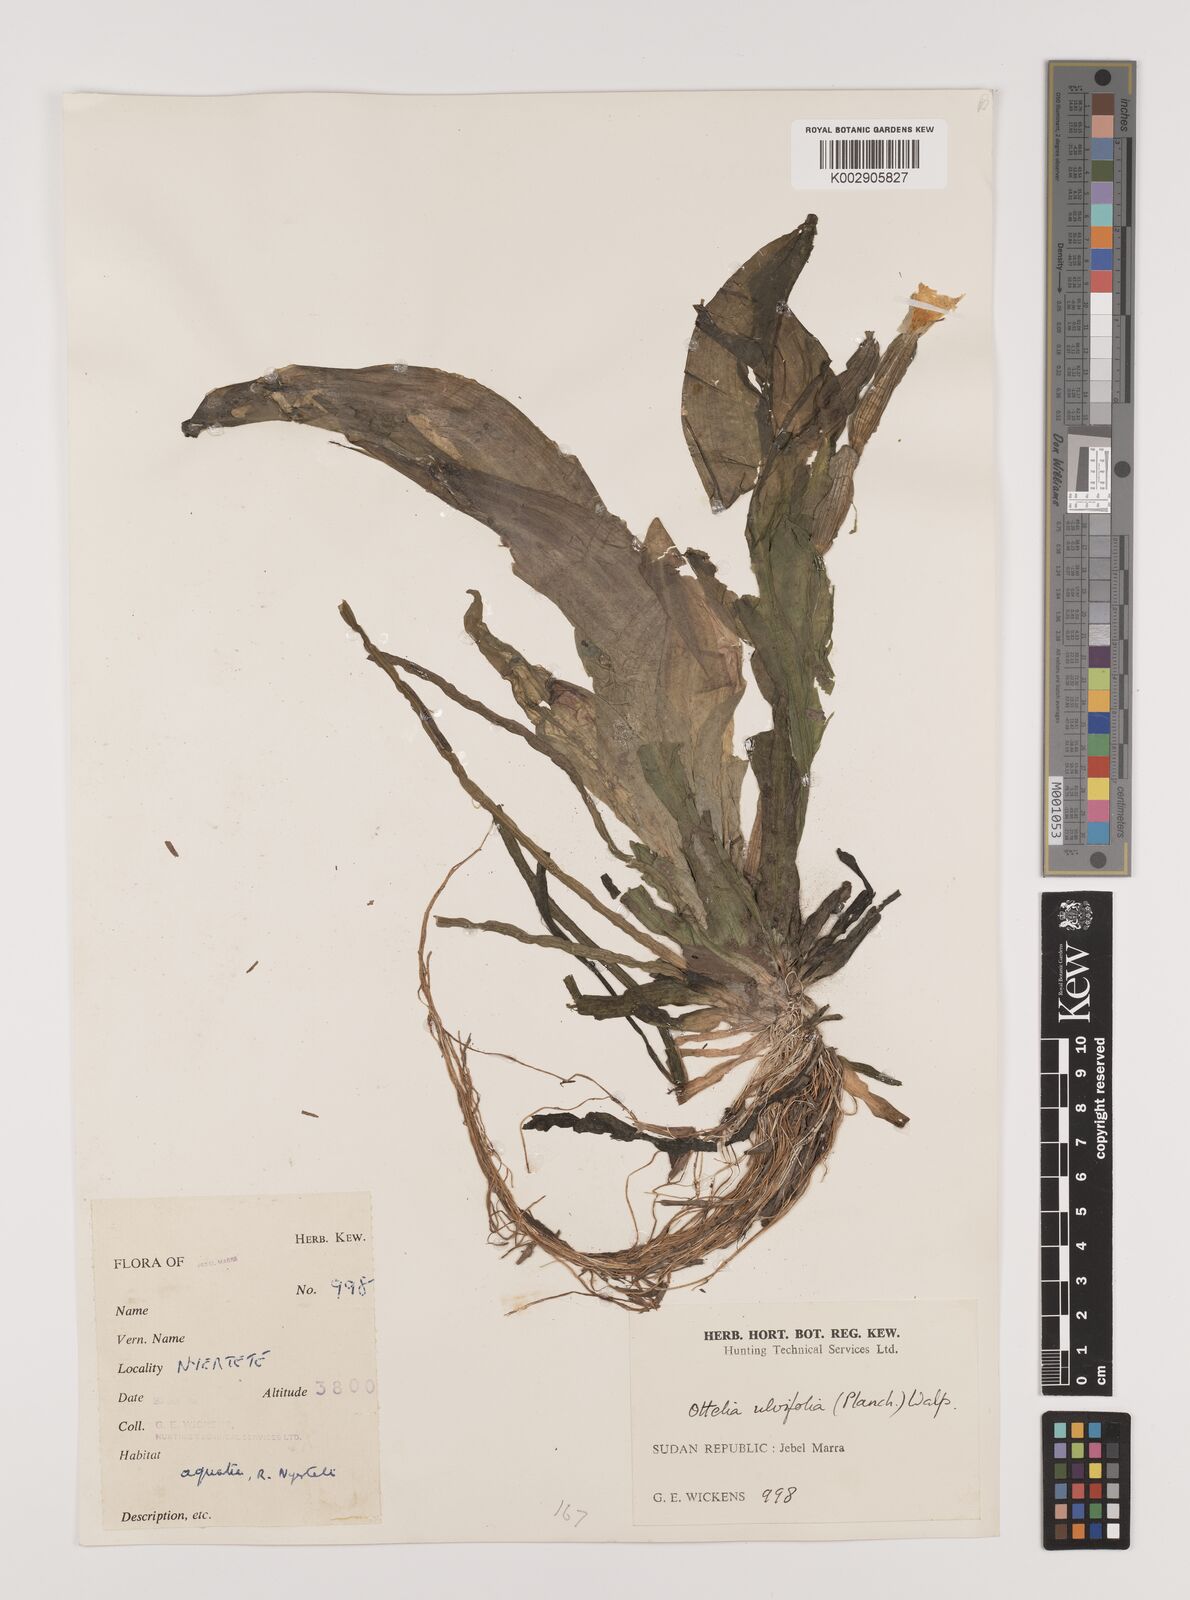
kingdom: Plantae
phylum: Tracheophyta
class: Liliopsida
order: Alismatales
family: Hydrocharitaceae
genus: Ottelia
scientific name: Ottelia ulvifolia
